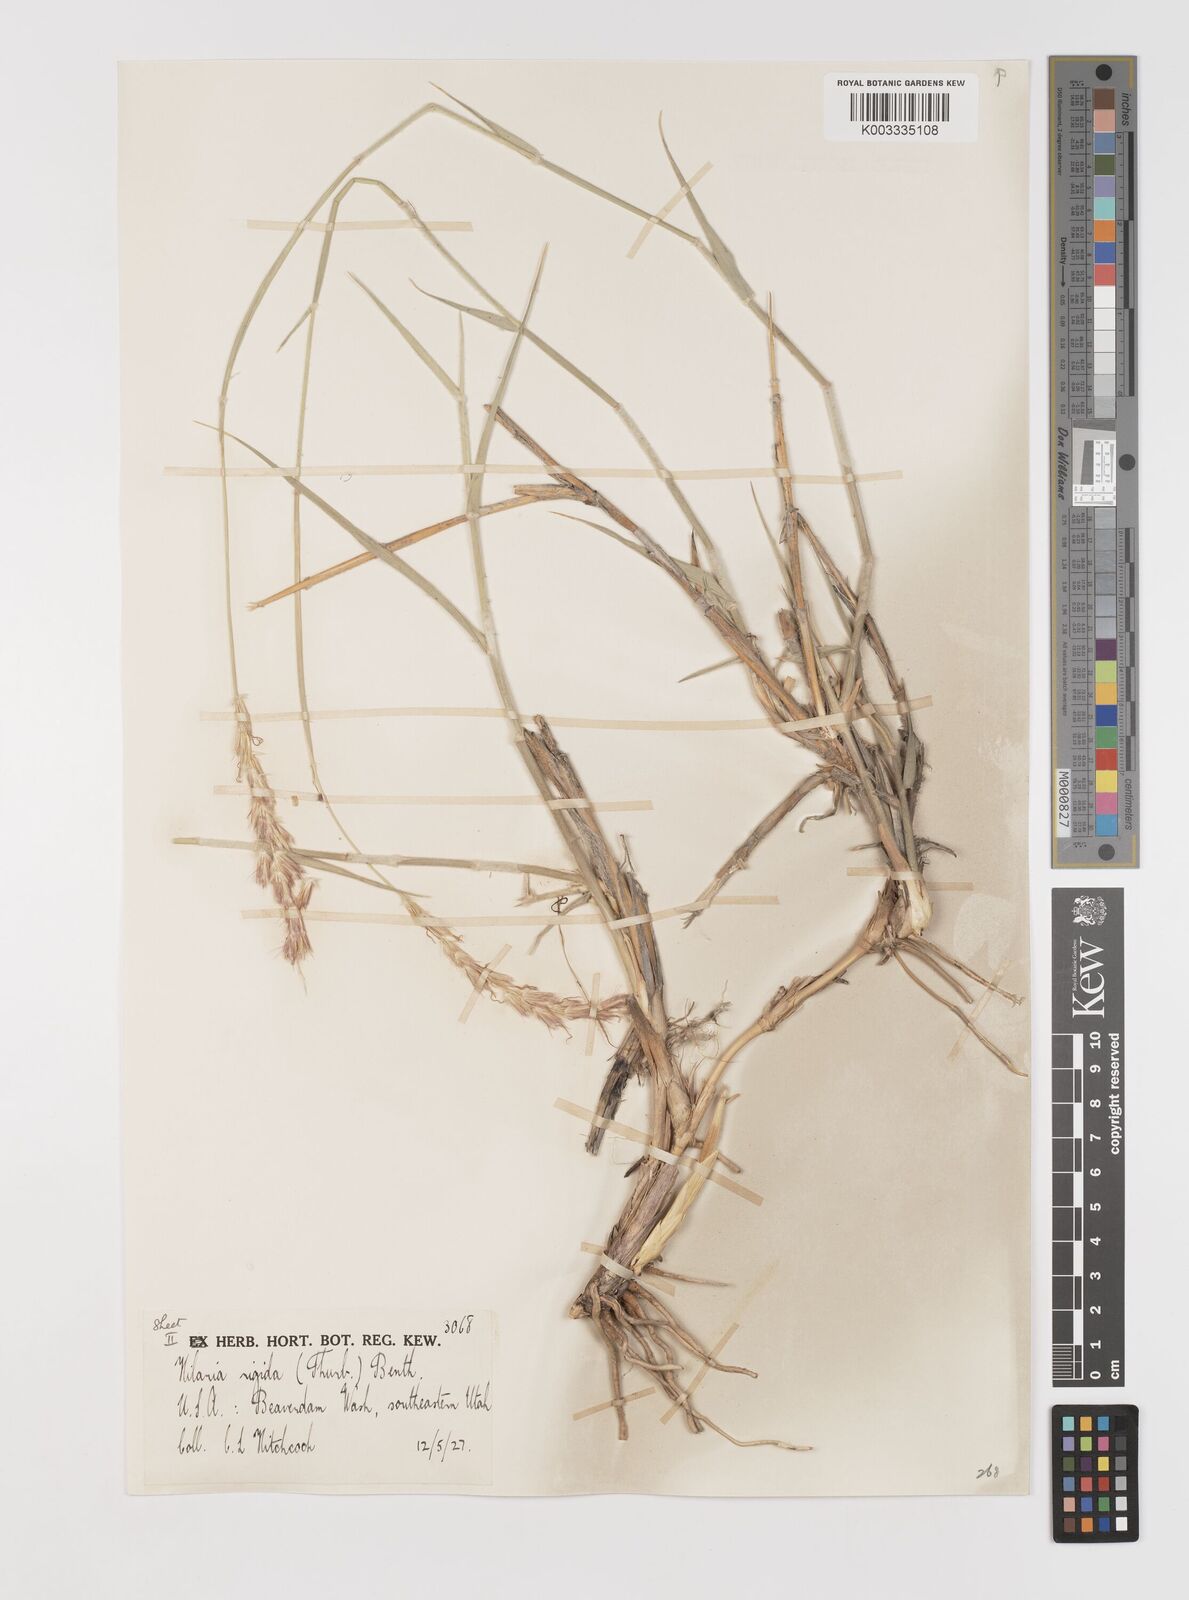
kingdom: Plantae
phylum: Tracheophyta
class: Liliopsida
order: Poales
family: Poaceae
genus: Hilaria
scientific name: Hilaria rigida
